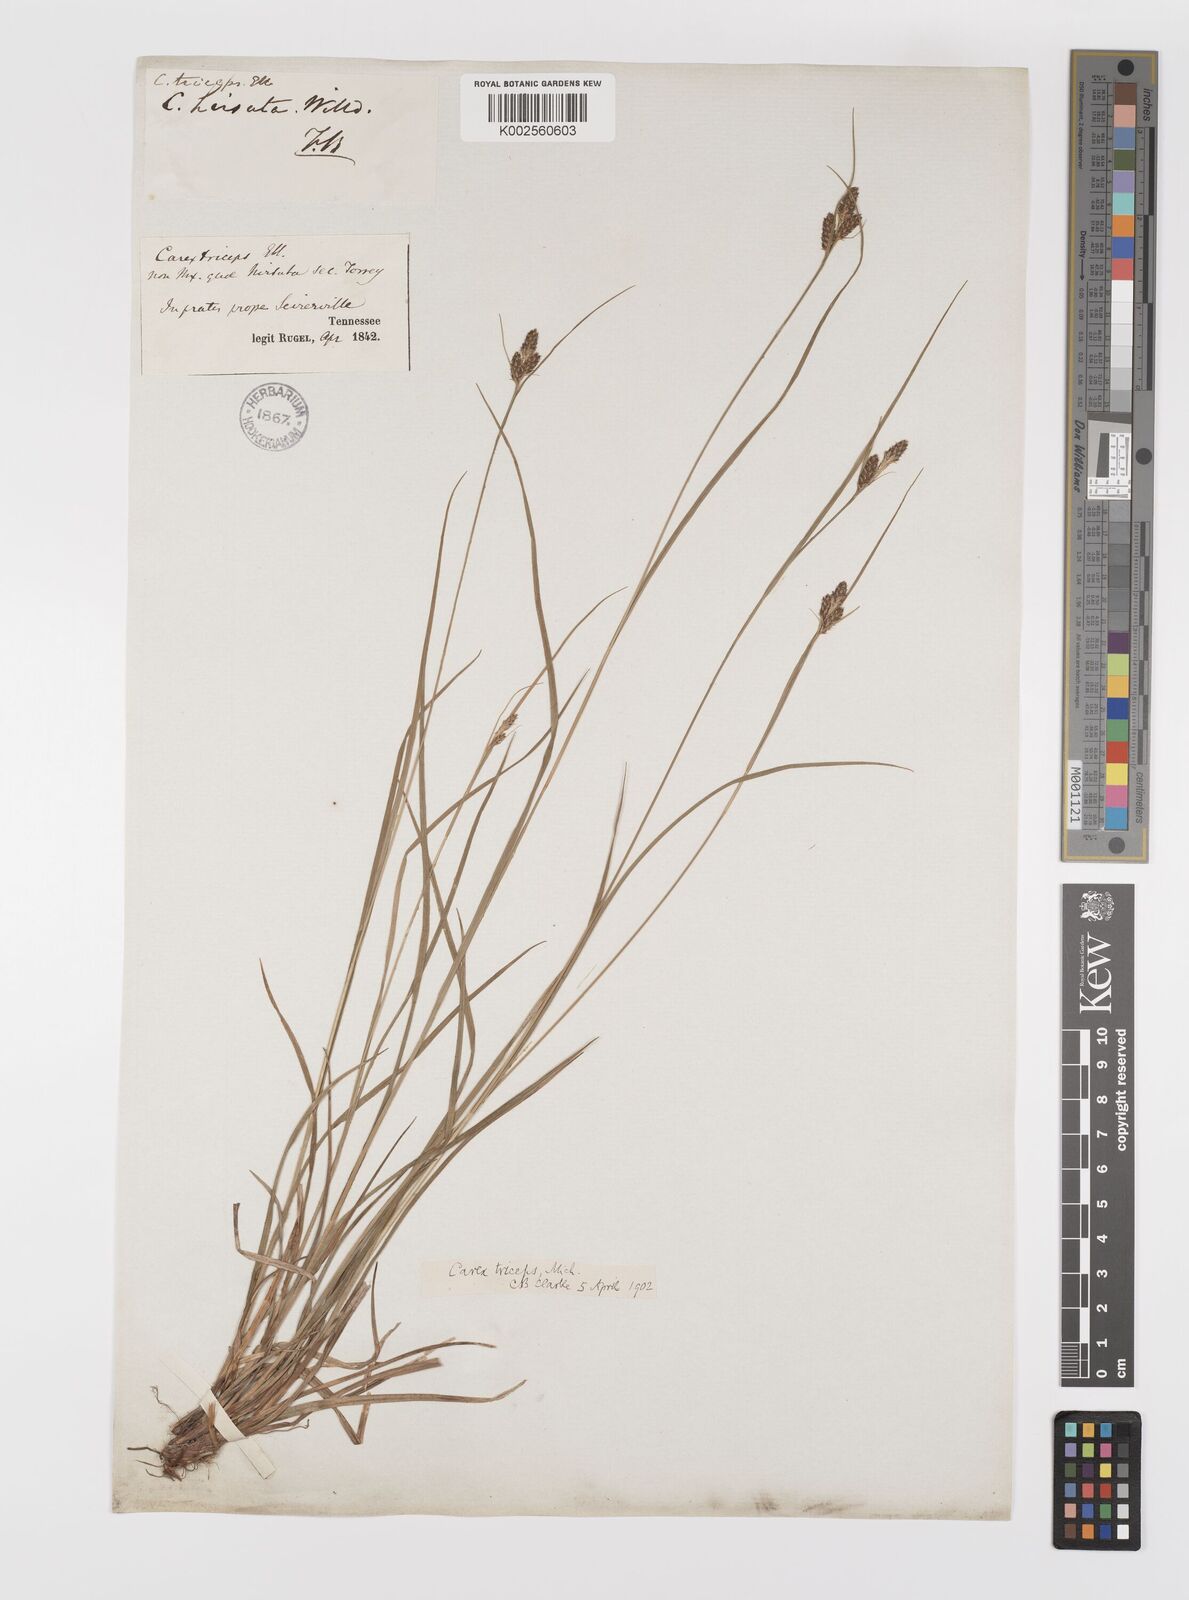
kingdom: Plantae
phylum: Tracheophyta
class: Liliopsida
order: Poales
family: Cyperaceae
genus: Carex
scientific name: Carex complanata
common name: Hirsute sedge
